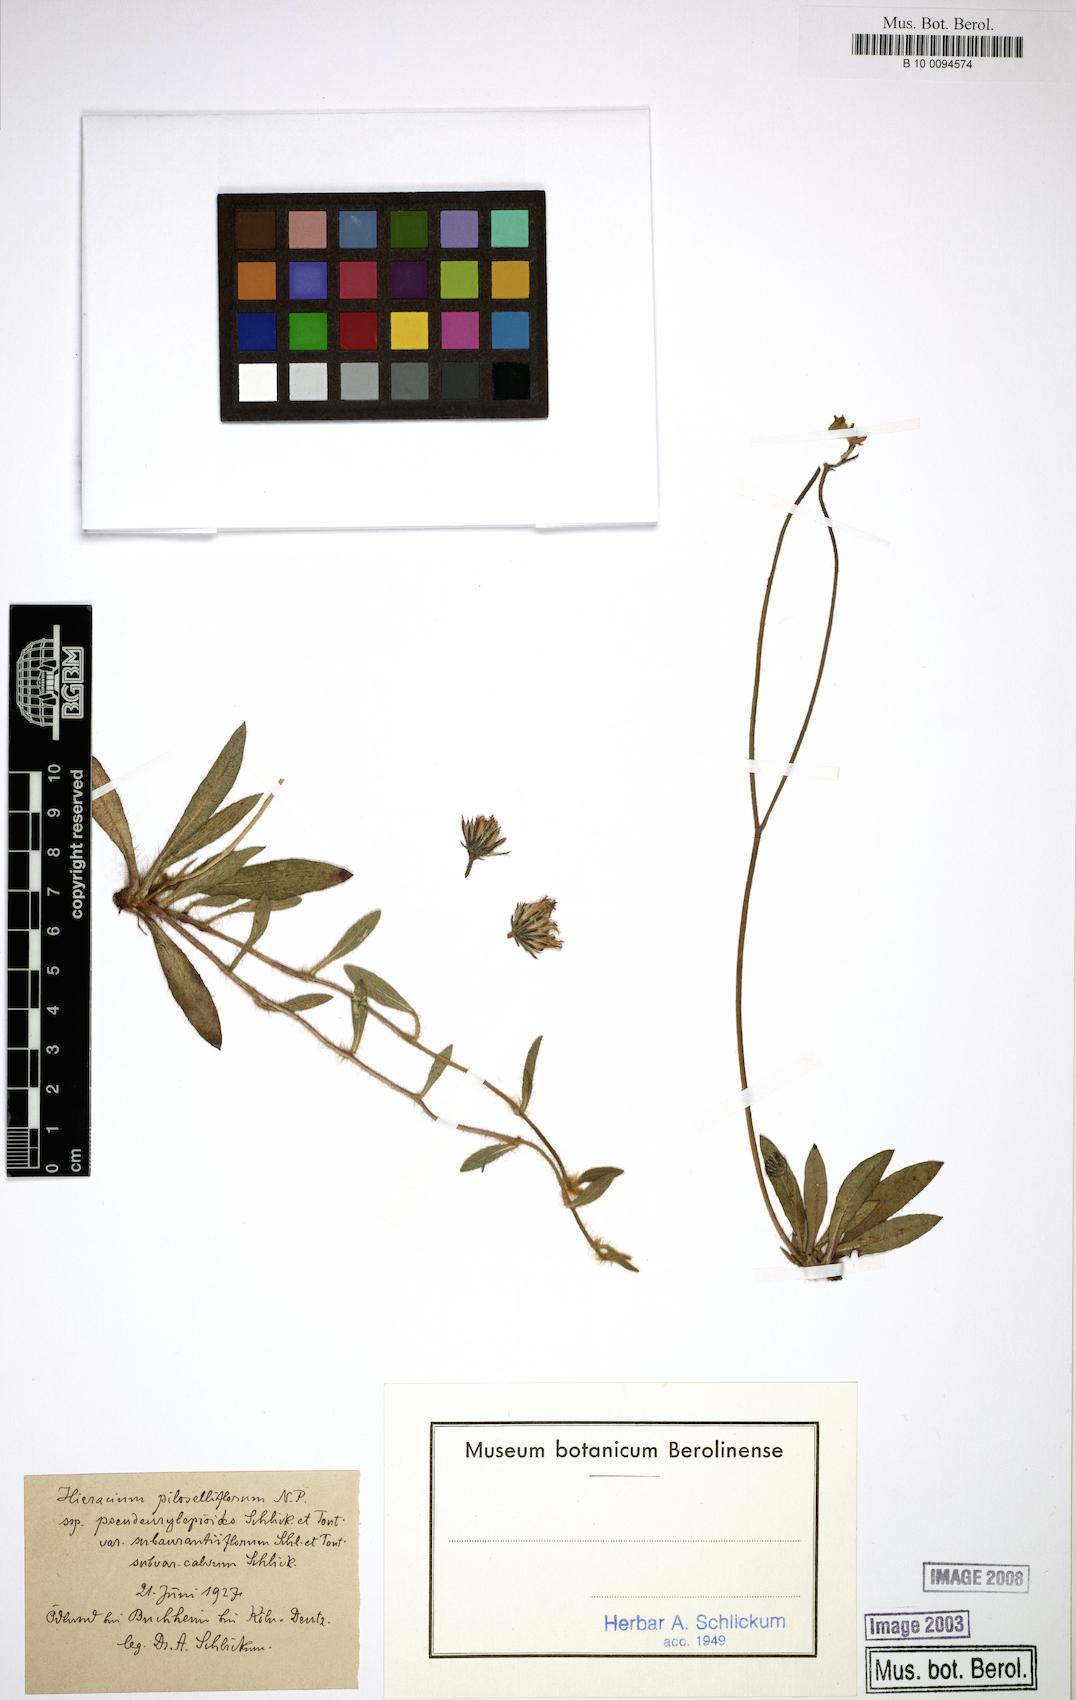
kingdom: Plantae
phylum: Tracheophyta
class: Magnoliopsida
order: Asterales
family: Asteraceae
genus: Pilosella
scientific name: Pilosella piloselliflora
